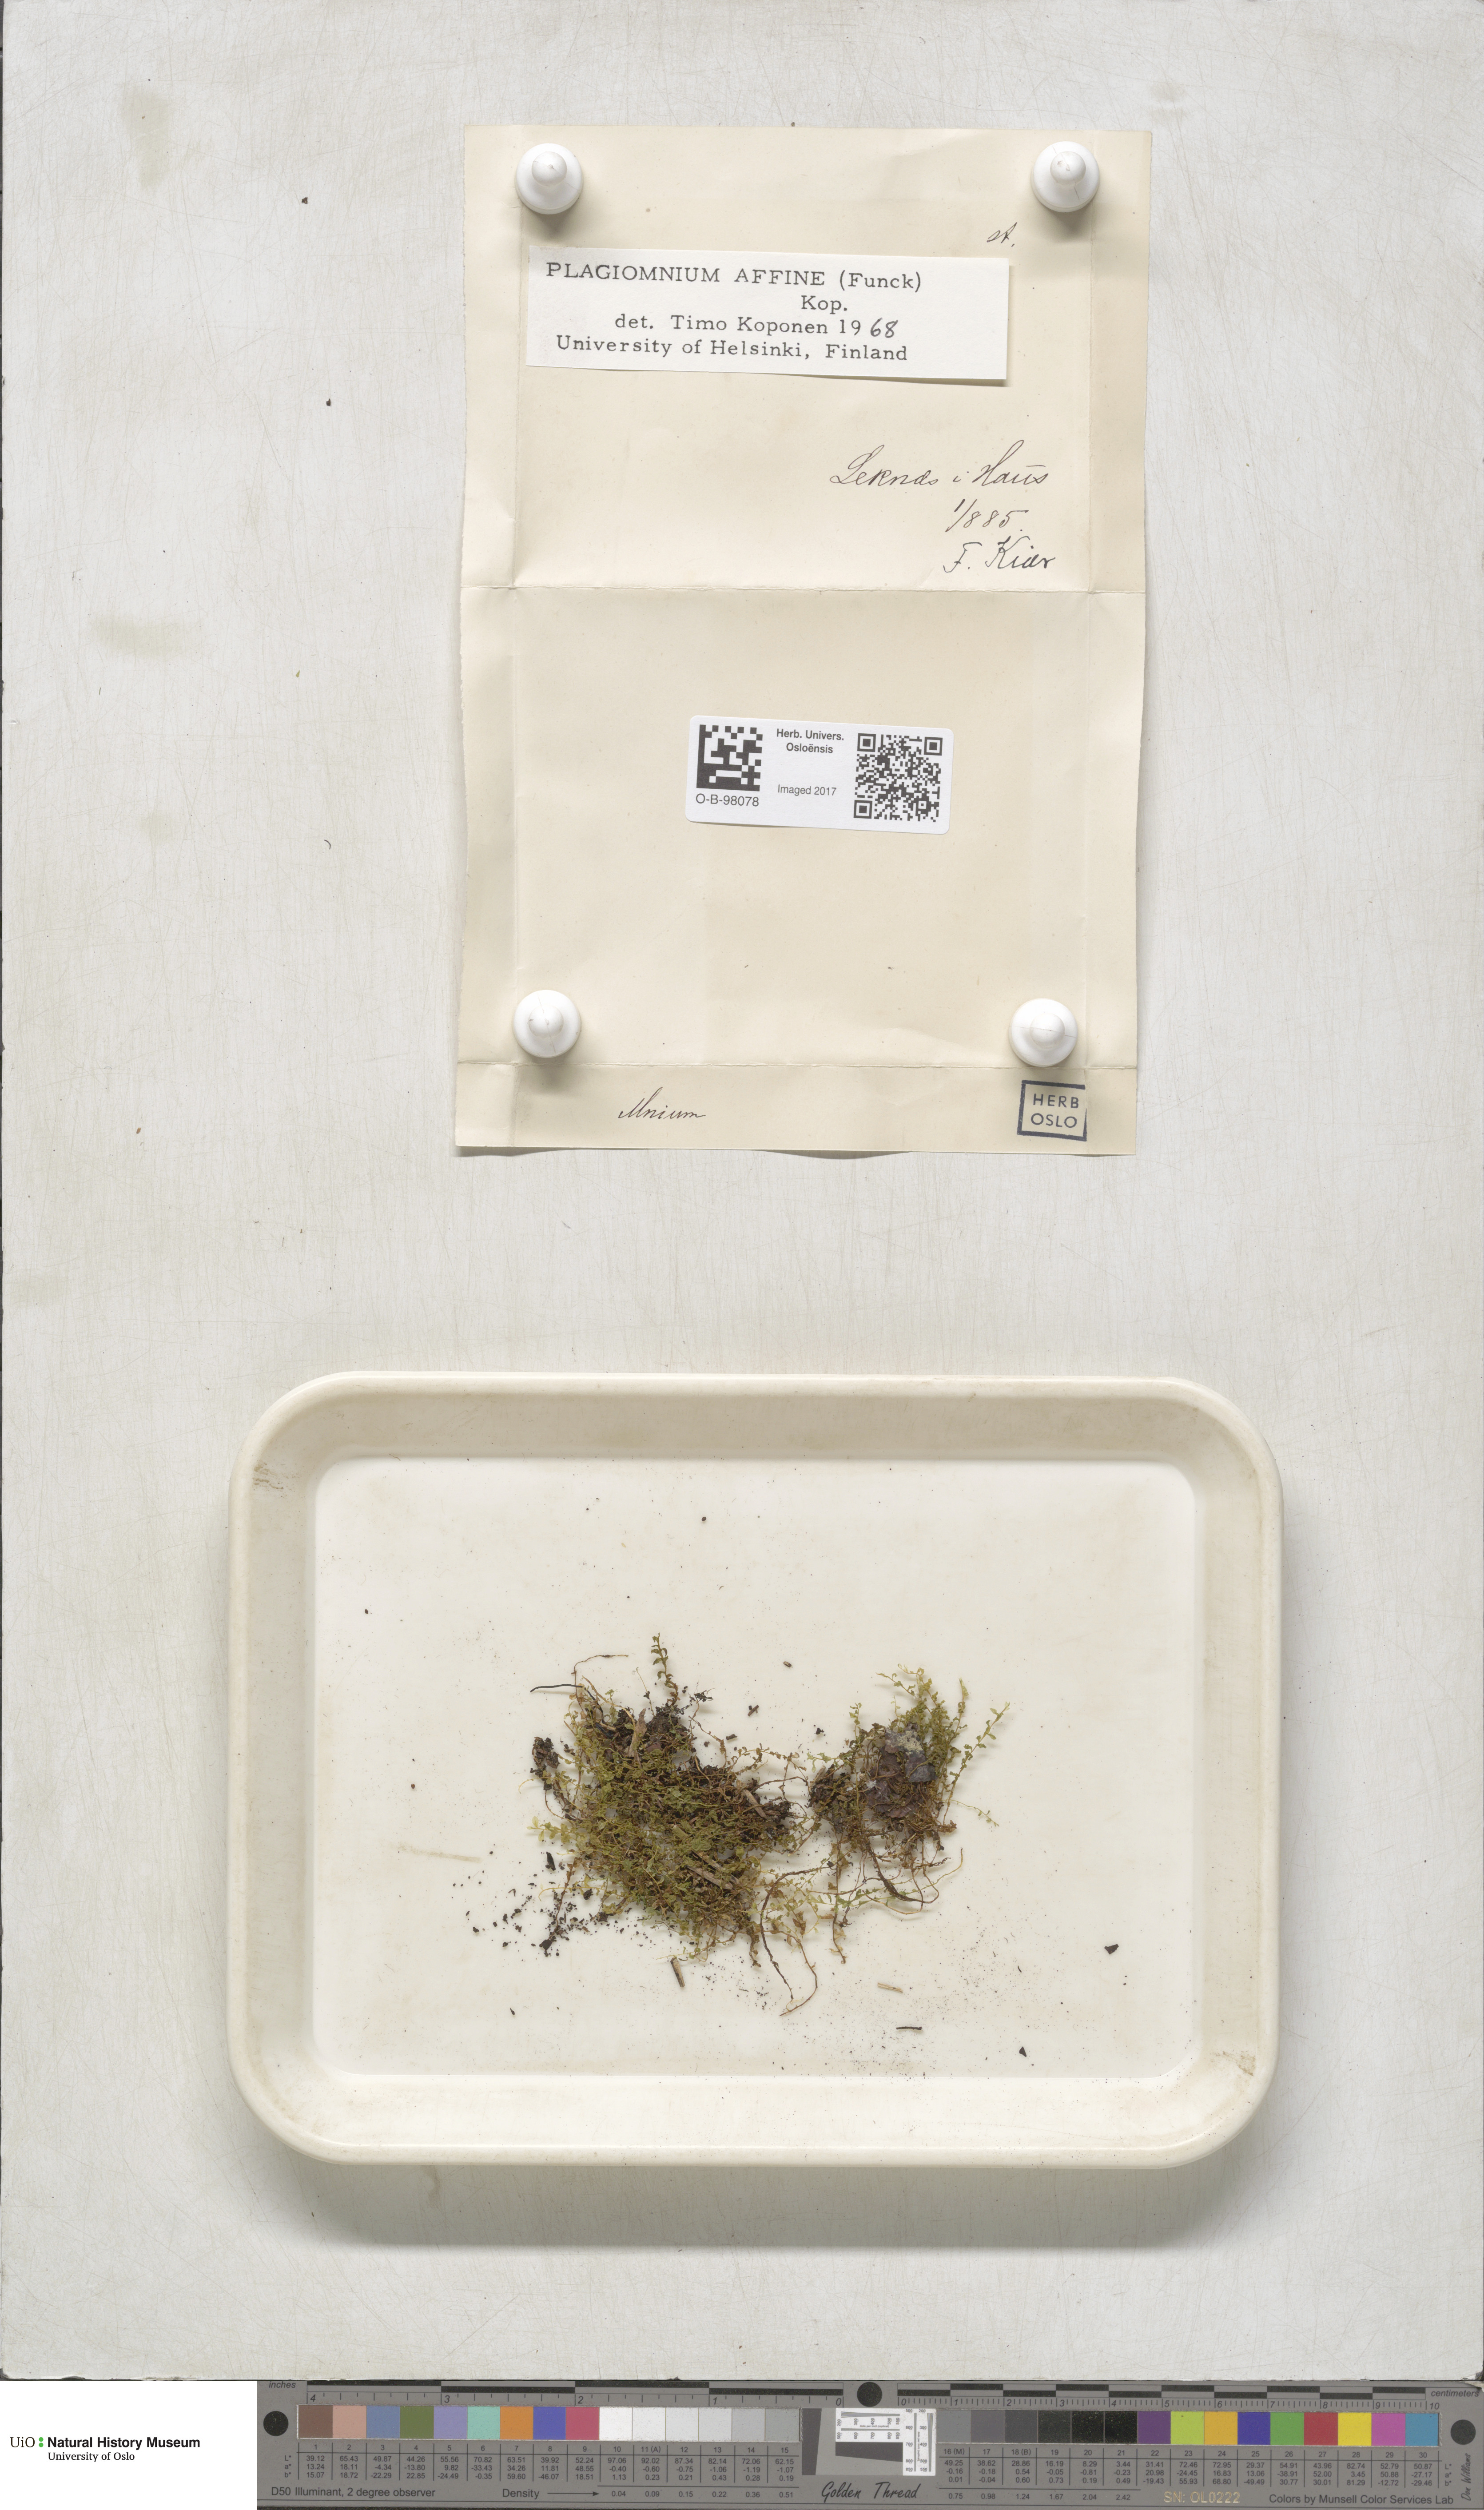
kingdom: Plantae
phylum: Bryophyta
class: Bryopsida
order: Bryales
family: Mniaceae
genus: Plagiomnium
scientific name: Plagiomnium affine
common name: Many-fruited thyme-moss
